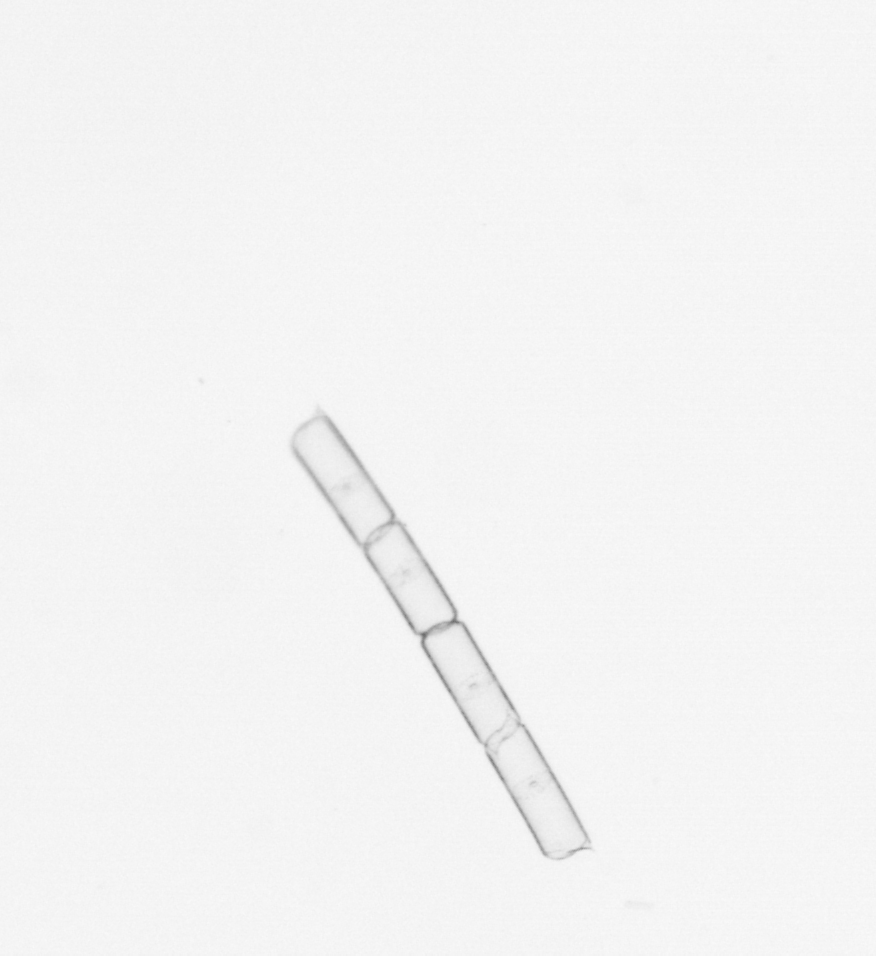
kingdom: Chromista
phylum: Ochrophyta
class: Bacillariophyceae
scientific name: Bacillariophyceae
